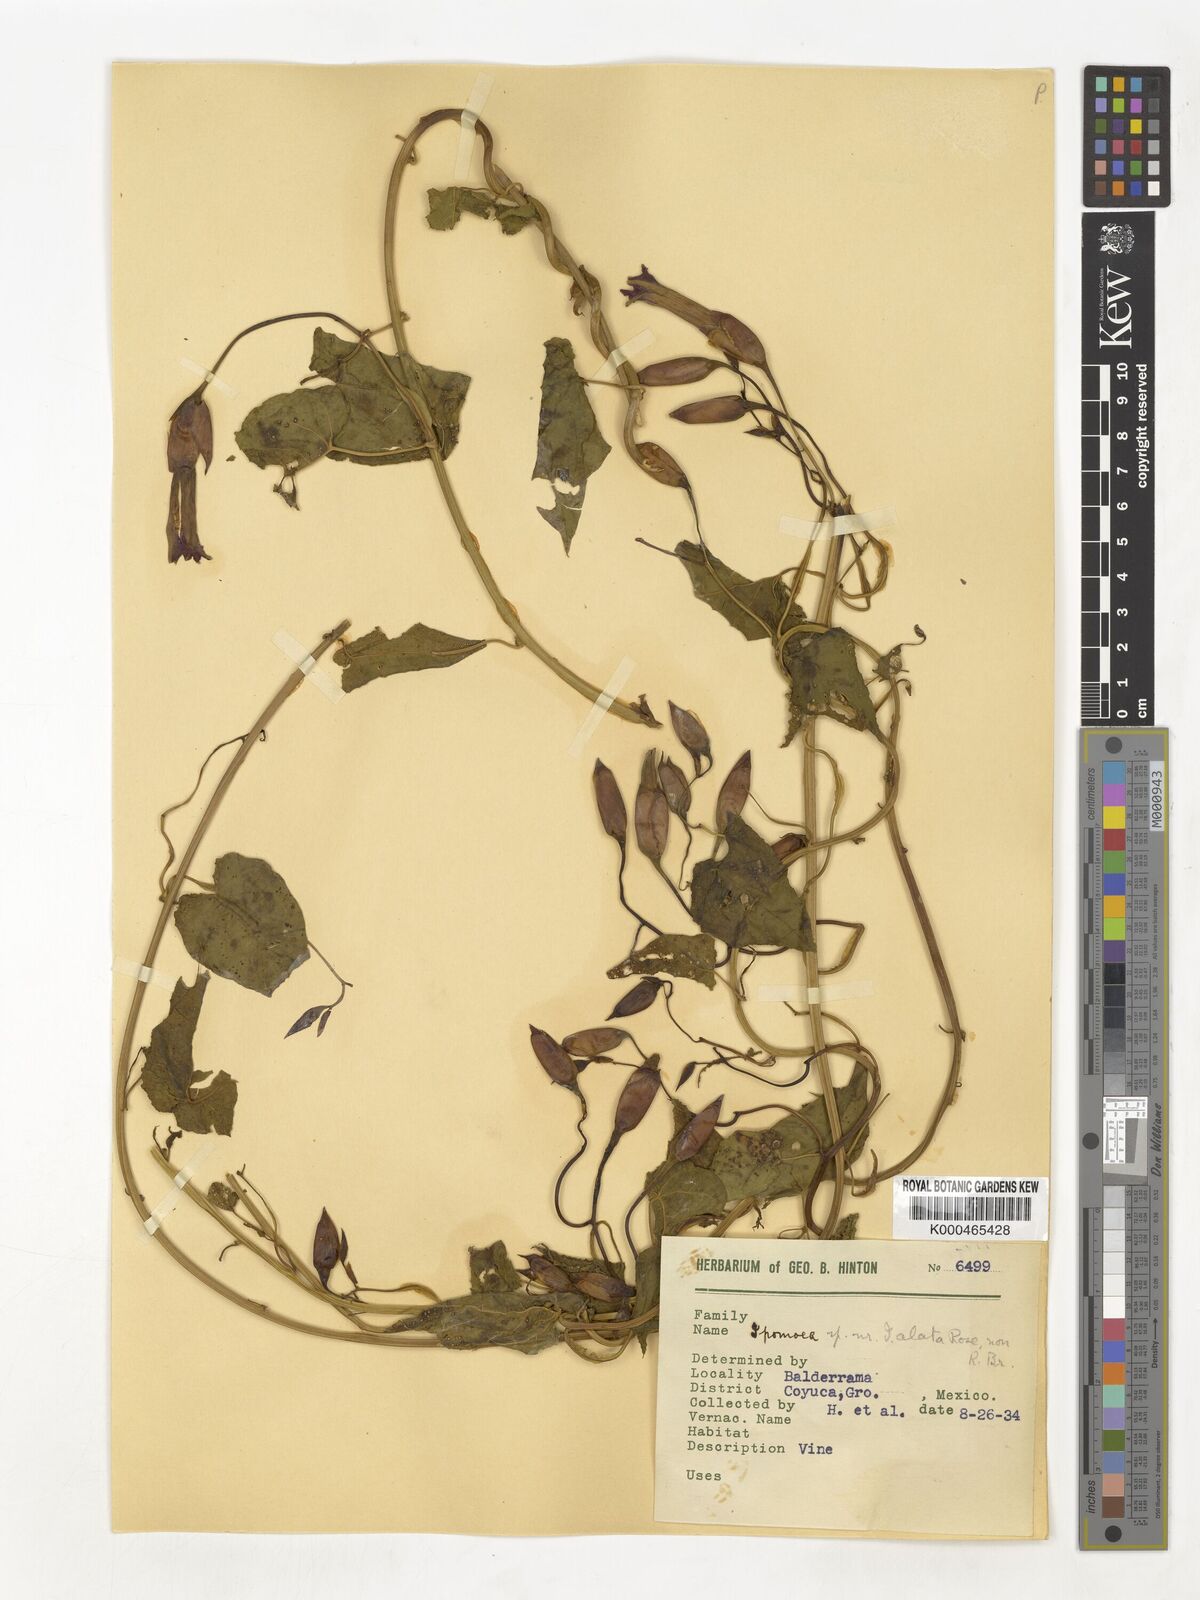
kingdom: Plantae
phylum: Tracheophyta
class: Magnoliopsida
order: Solanales
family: Convolvulaceae
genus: Operculina
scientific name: Operculina
